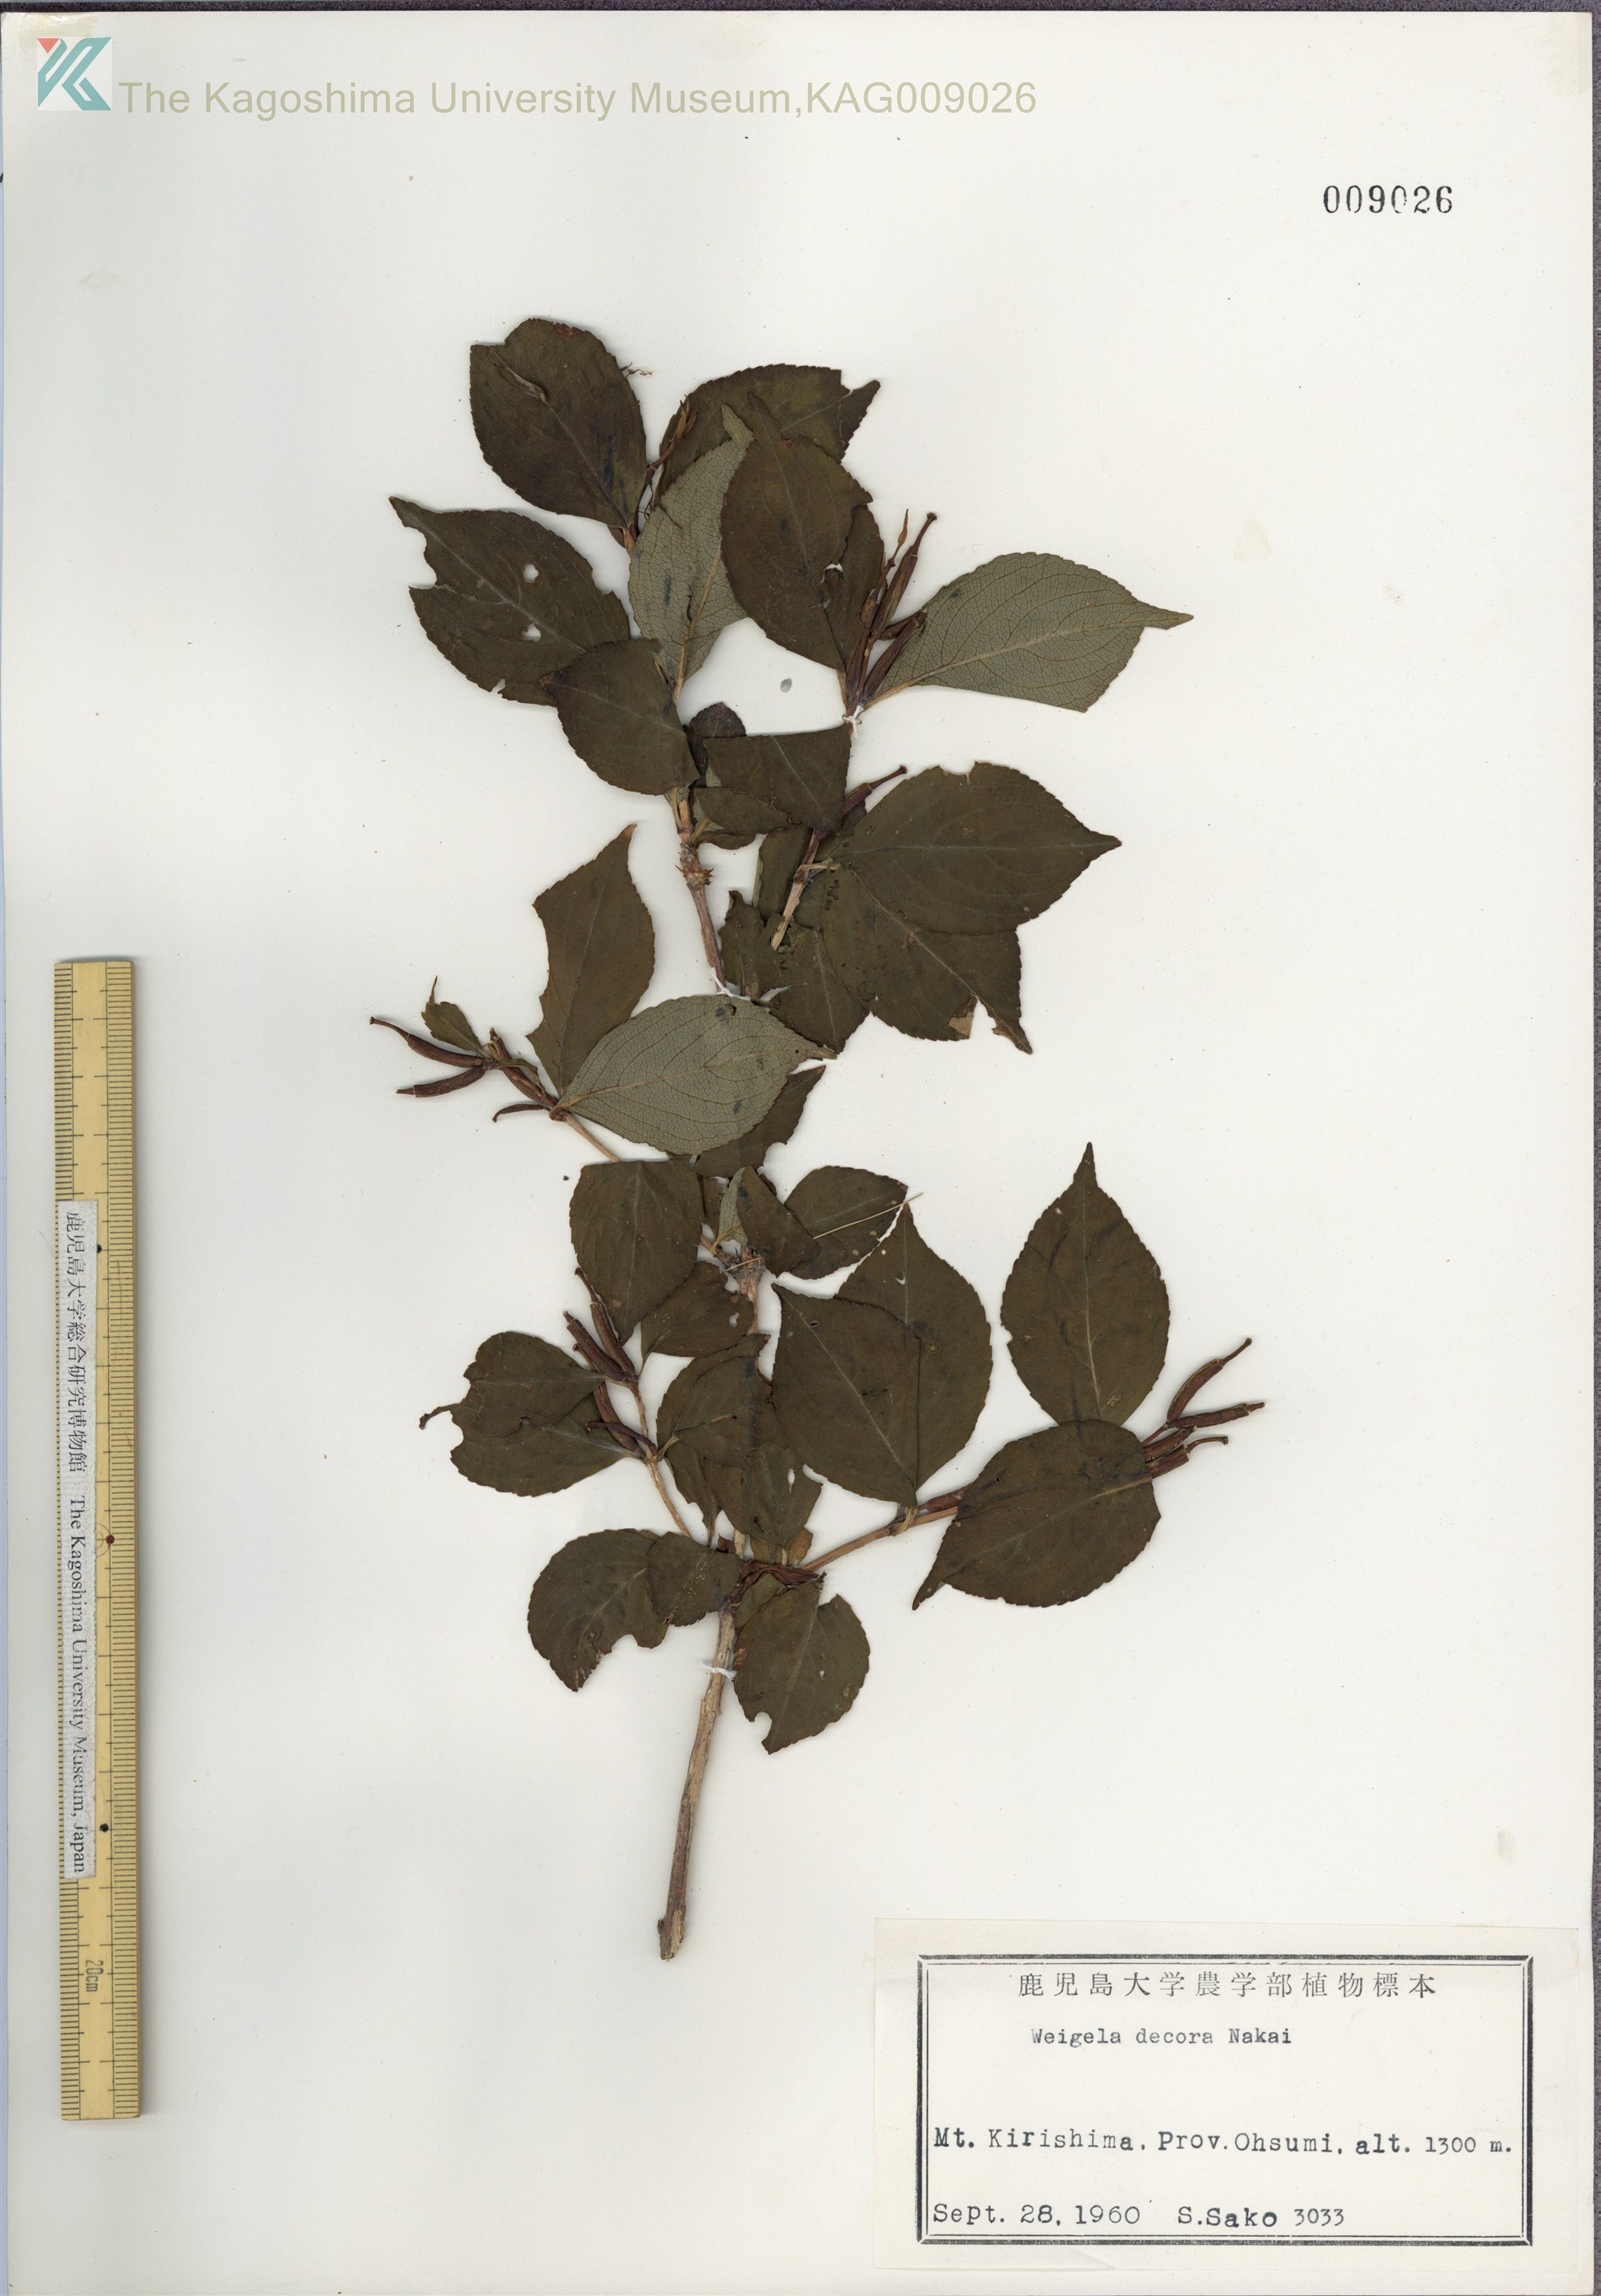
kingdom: Plantae
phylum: Tracheophyta
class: Magnoliopsida
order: Dipsacales
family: Caprifoliaceae
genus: Weigela
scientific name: Weigela decora
